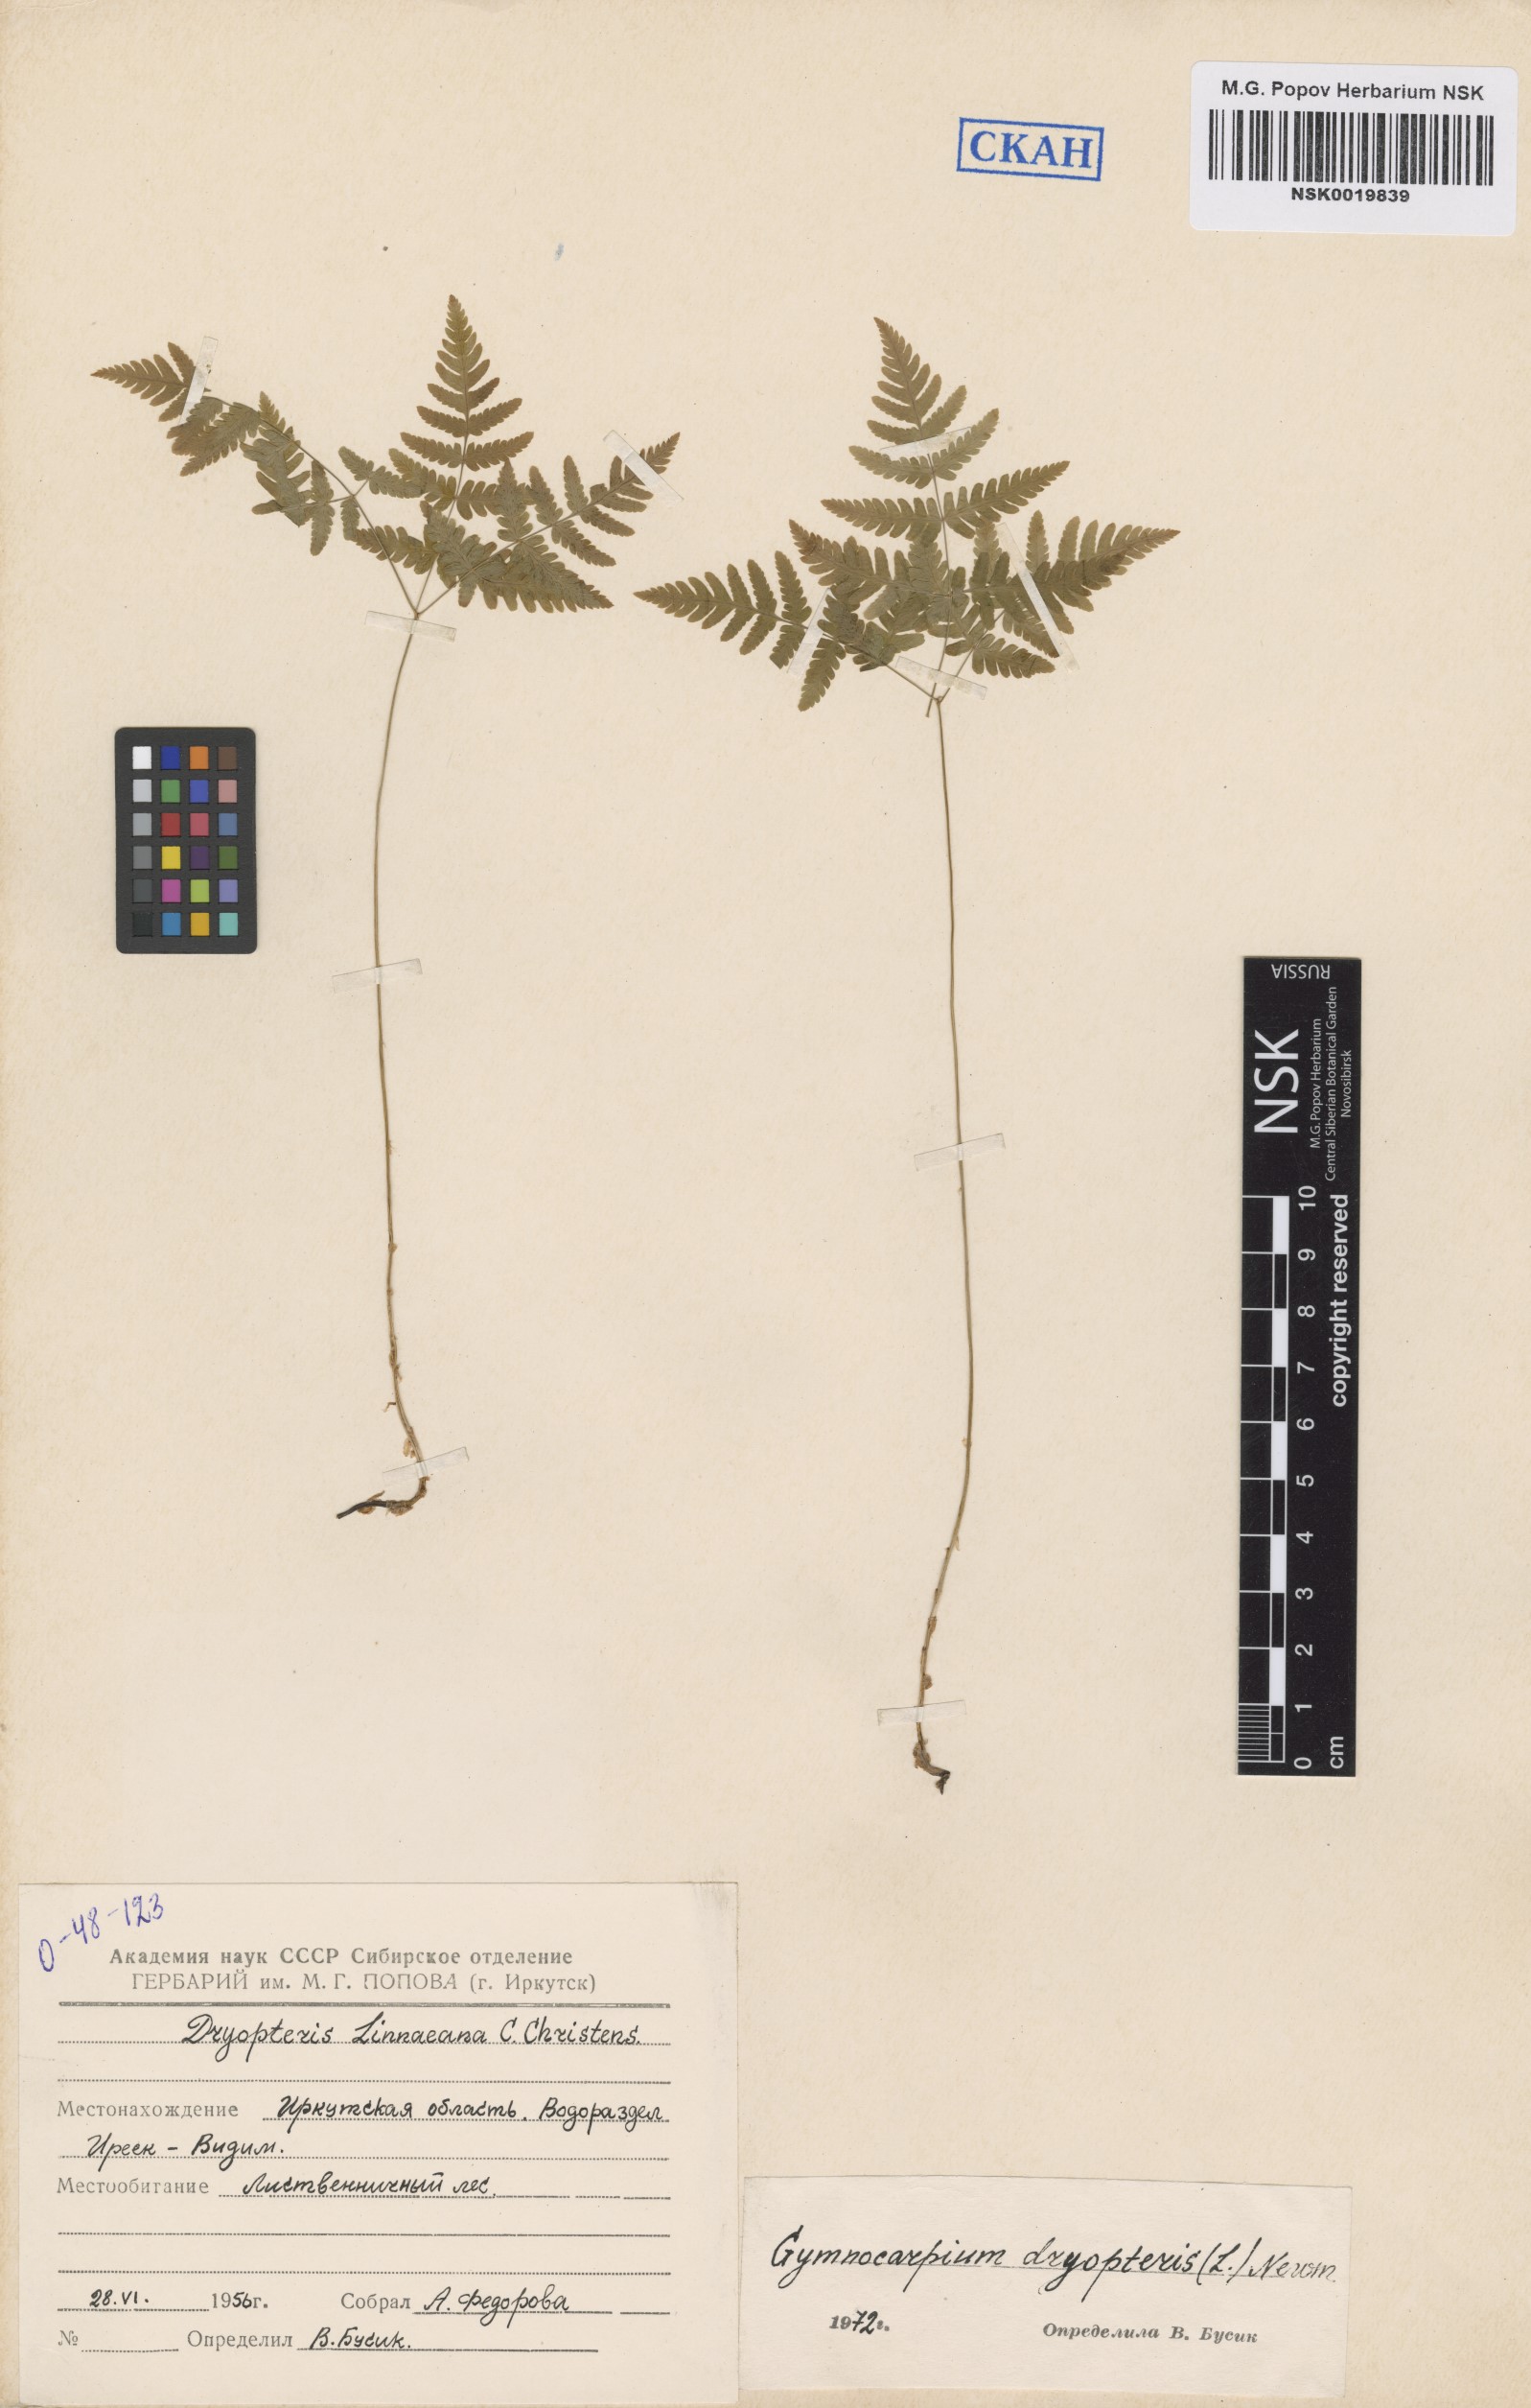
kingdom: Plantae
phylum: Tracheophyta
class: Polypodiopsida
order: Polypodiales
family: Cystopteridaceae
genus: Gymnocarpium
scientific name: Gymnocarpium dryopteris
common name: Oak fern
